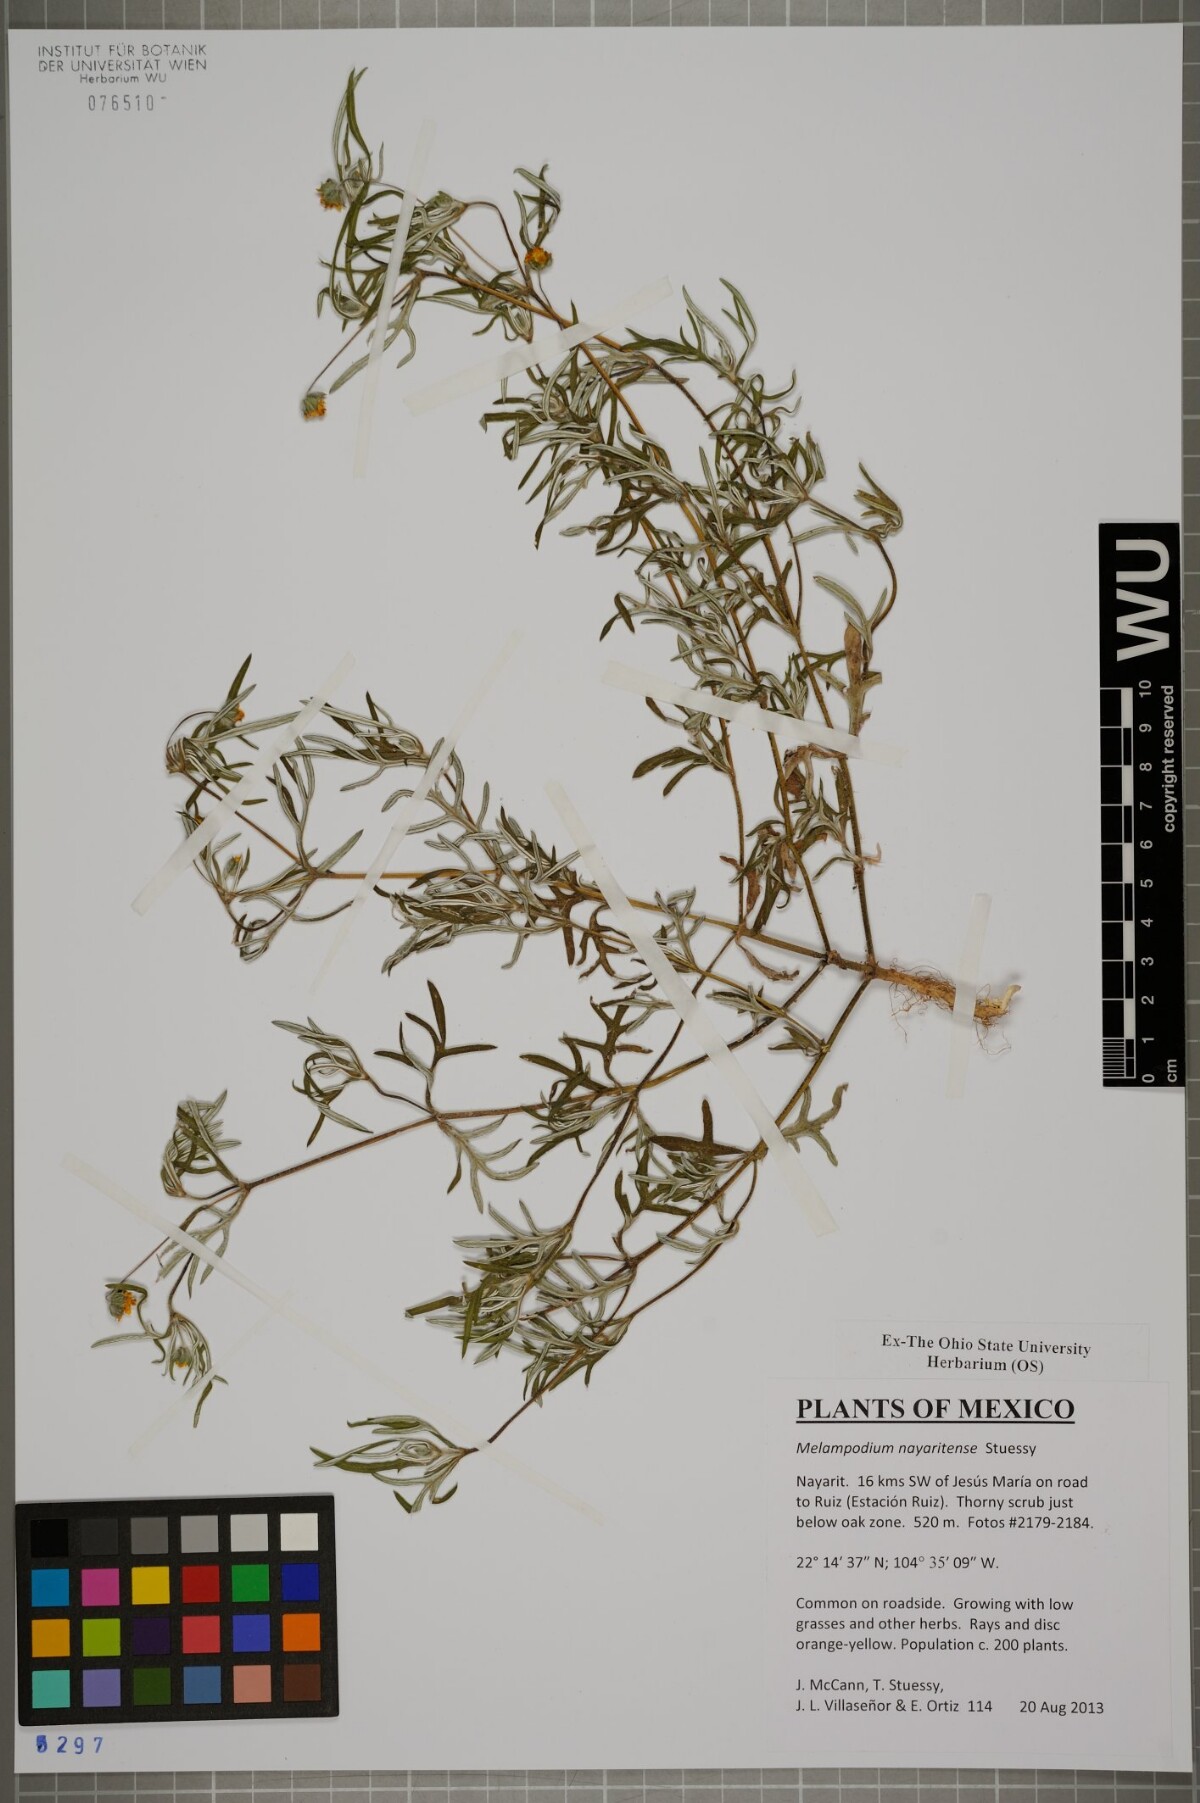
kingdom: Plantae
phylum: Tracheophyta
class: Magnoliopsida
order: Asterales
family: Asteraceae
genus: Melampodium
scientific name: Melampodium nayaritense
